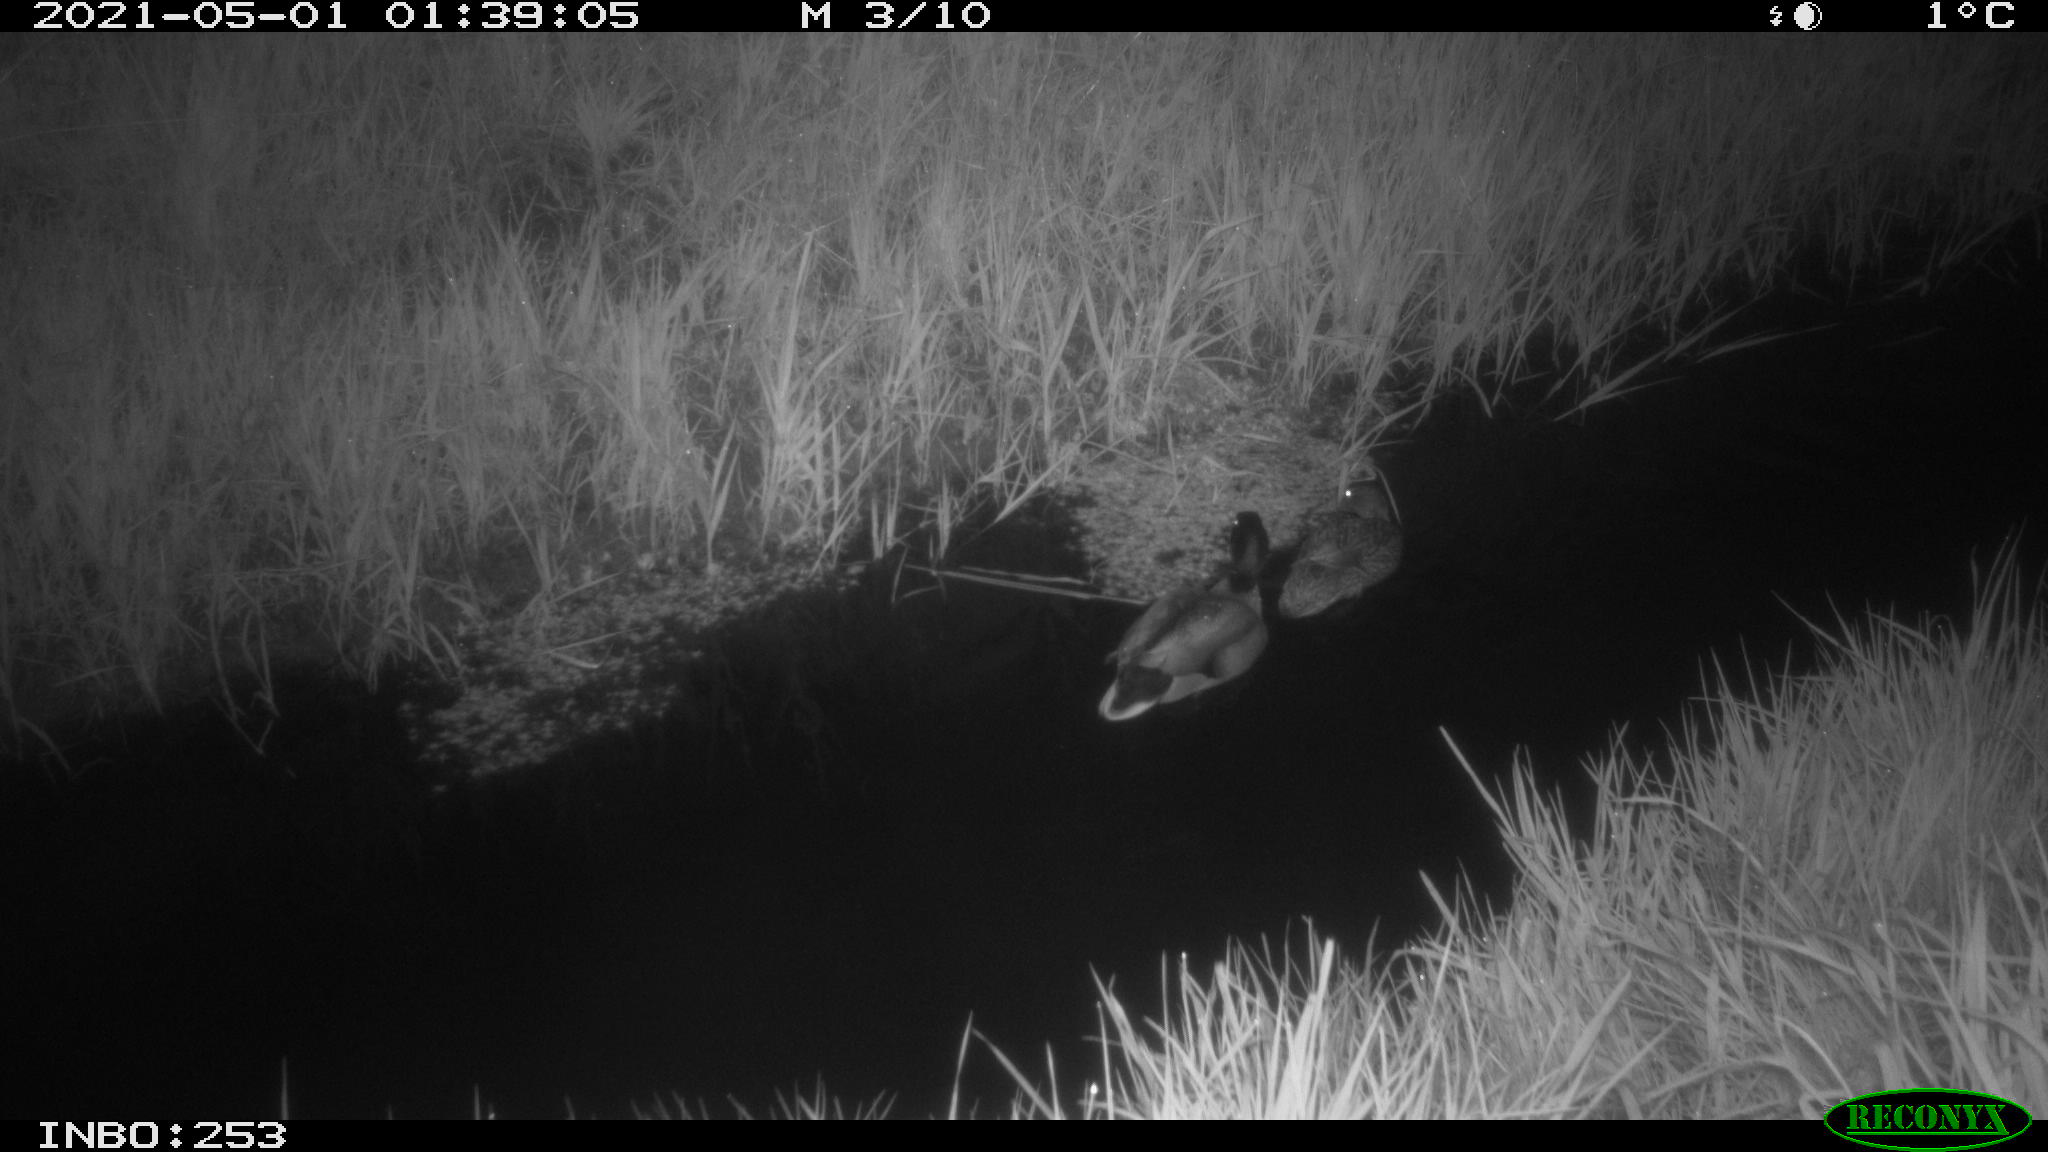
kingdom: Animalia
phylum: Chordata
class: Aves
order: Anseriformes
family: Anatidae
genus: Anas
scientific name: Anas platyrhynchos
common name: Mallard
